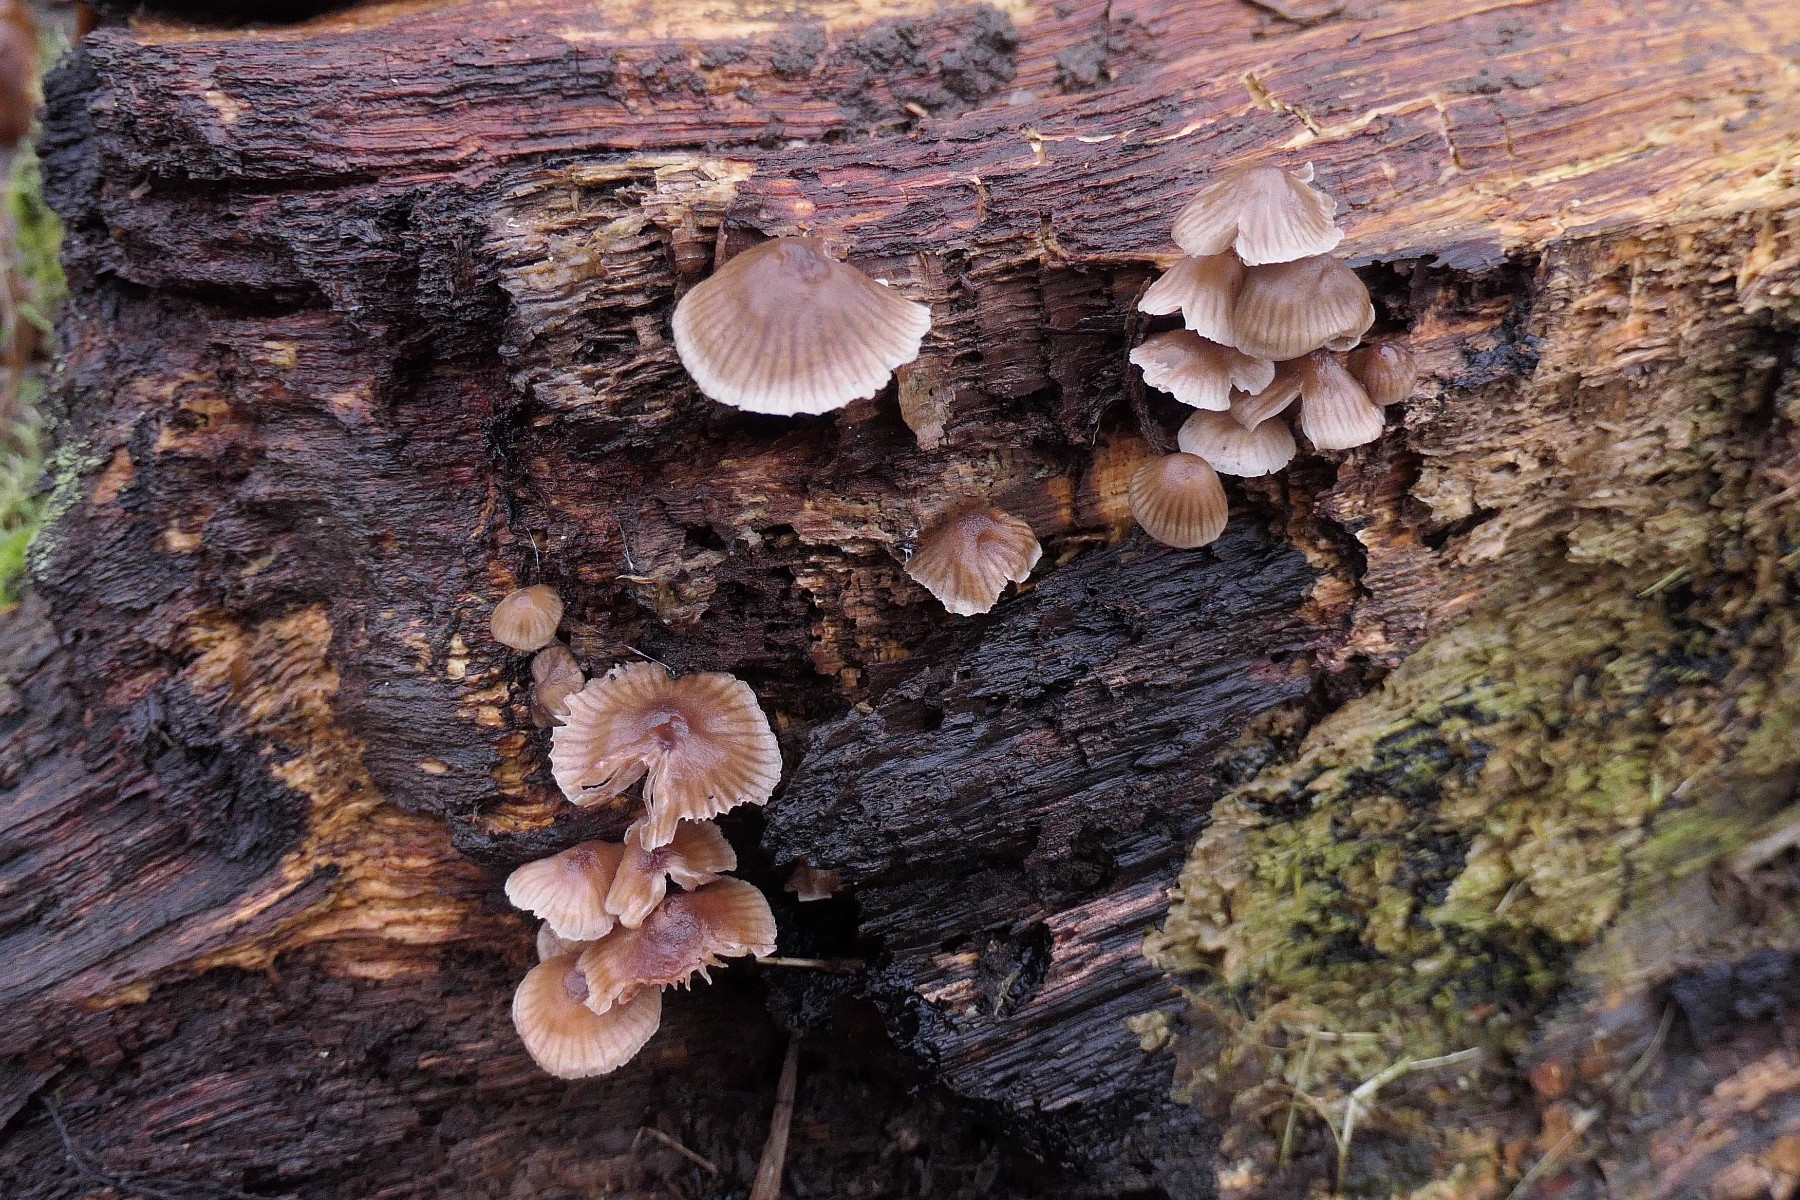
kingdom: Fungi
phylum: Basidiomycota
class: Agaricomycetes
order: Agaricales
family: Mycenaceae
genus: Mycena
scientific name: Mycena inclinata
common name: nikkende huesvamp
